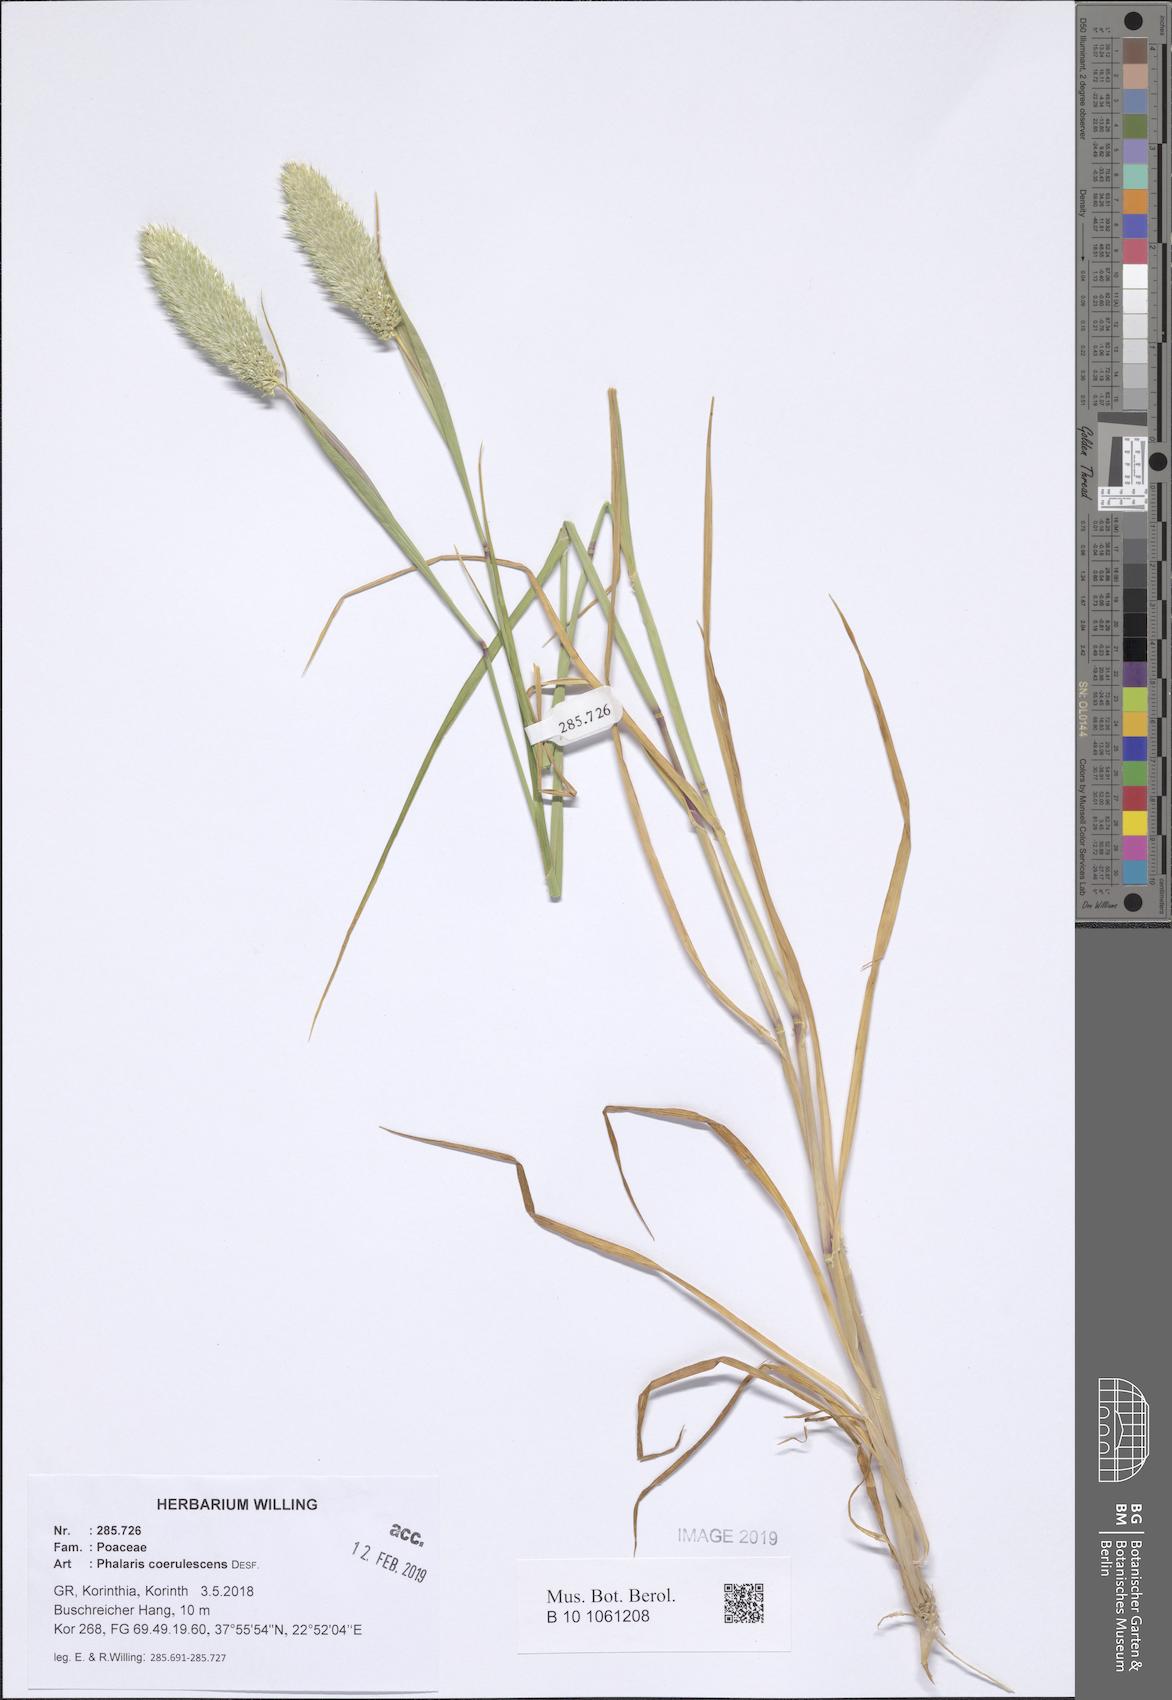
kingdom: Plantae
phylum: Tracheophyta
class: Liliopsida
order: Poales
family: Poaceae
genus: Phalaris
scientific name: Phalaris coerulescens
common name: Sunolgrass
